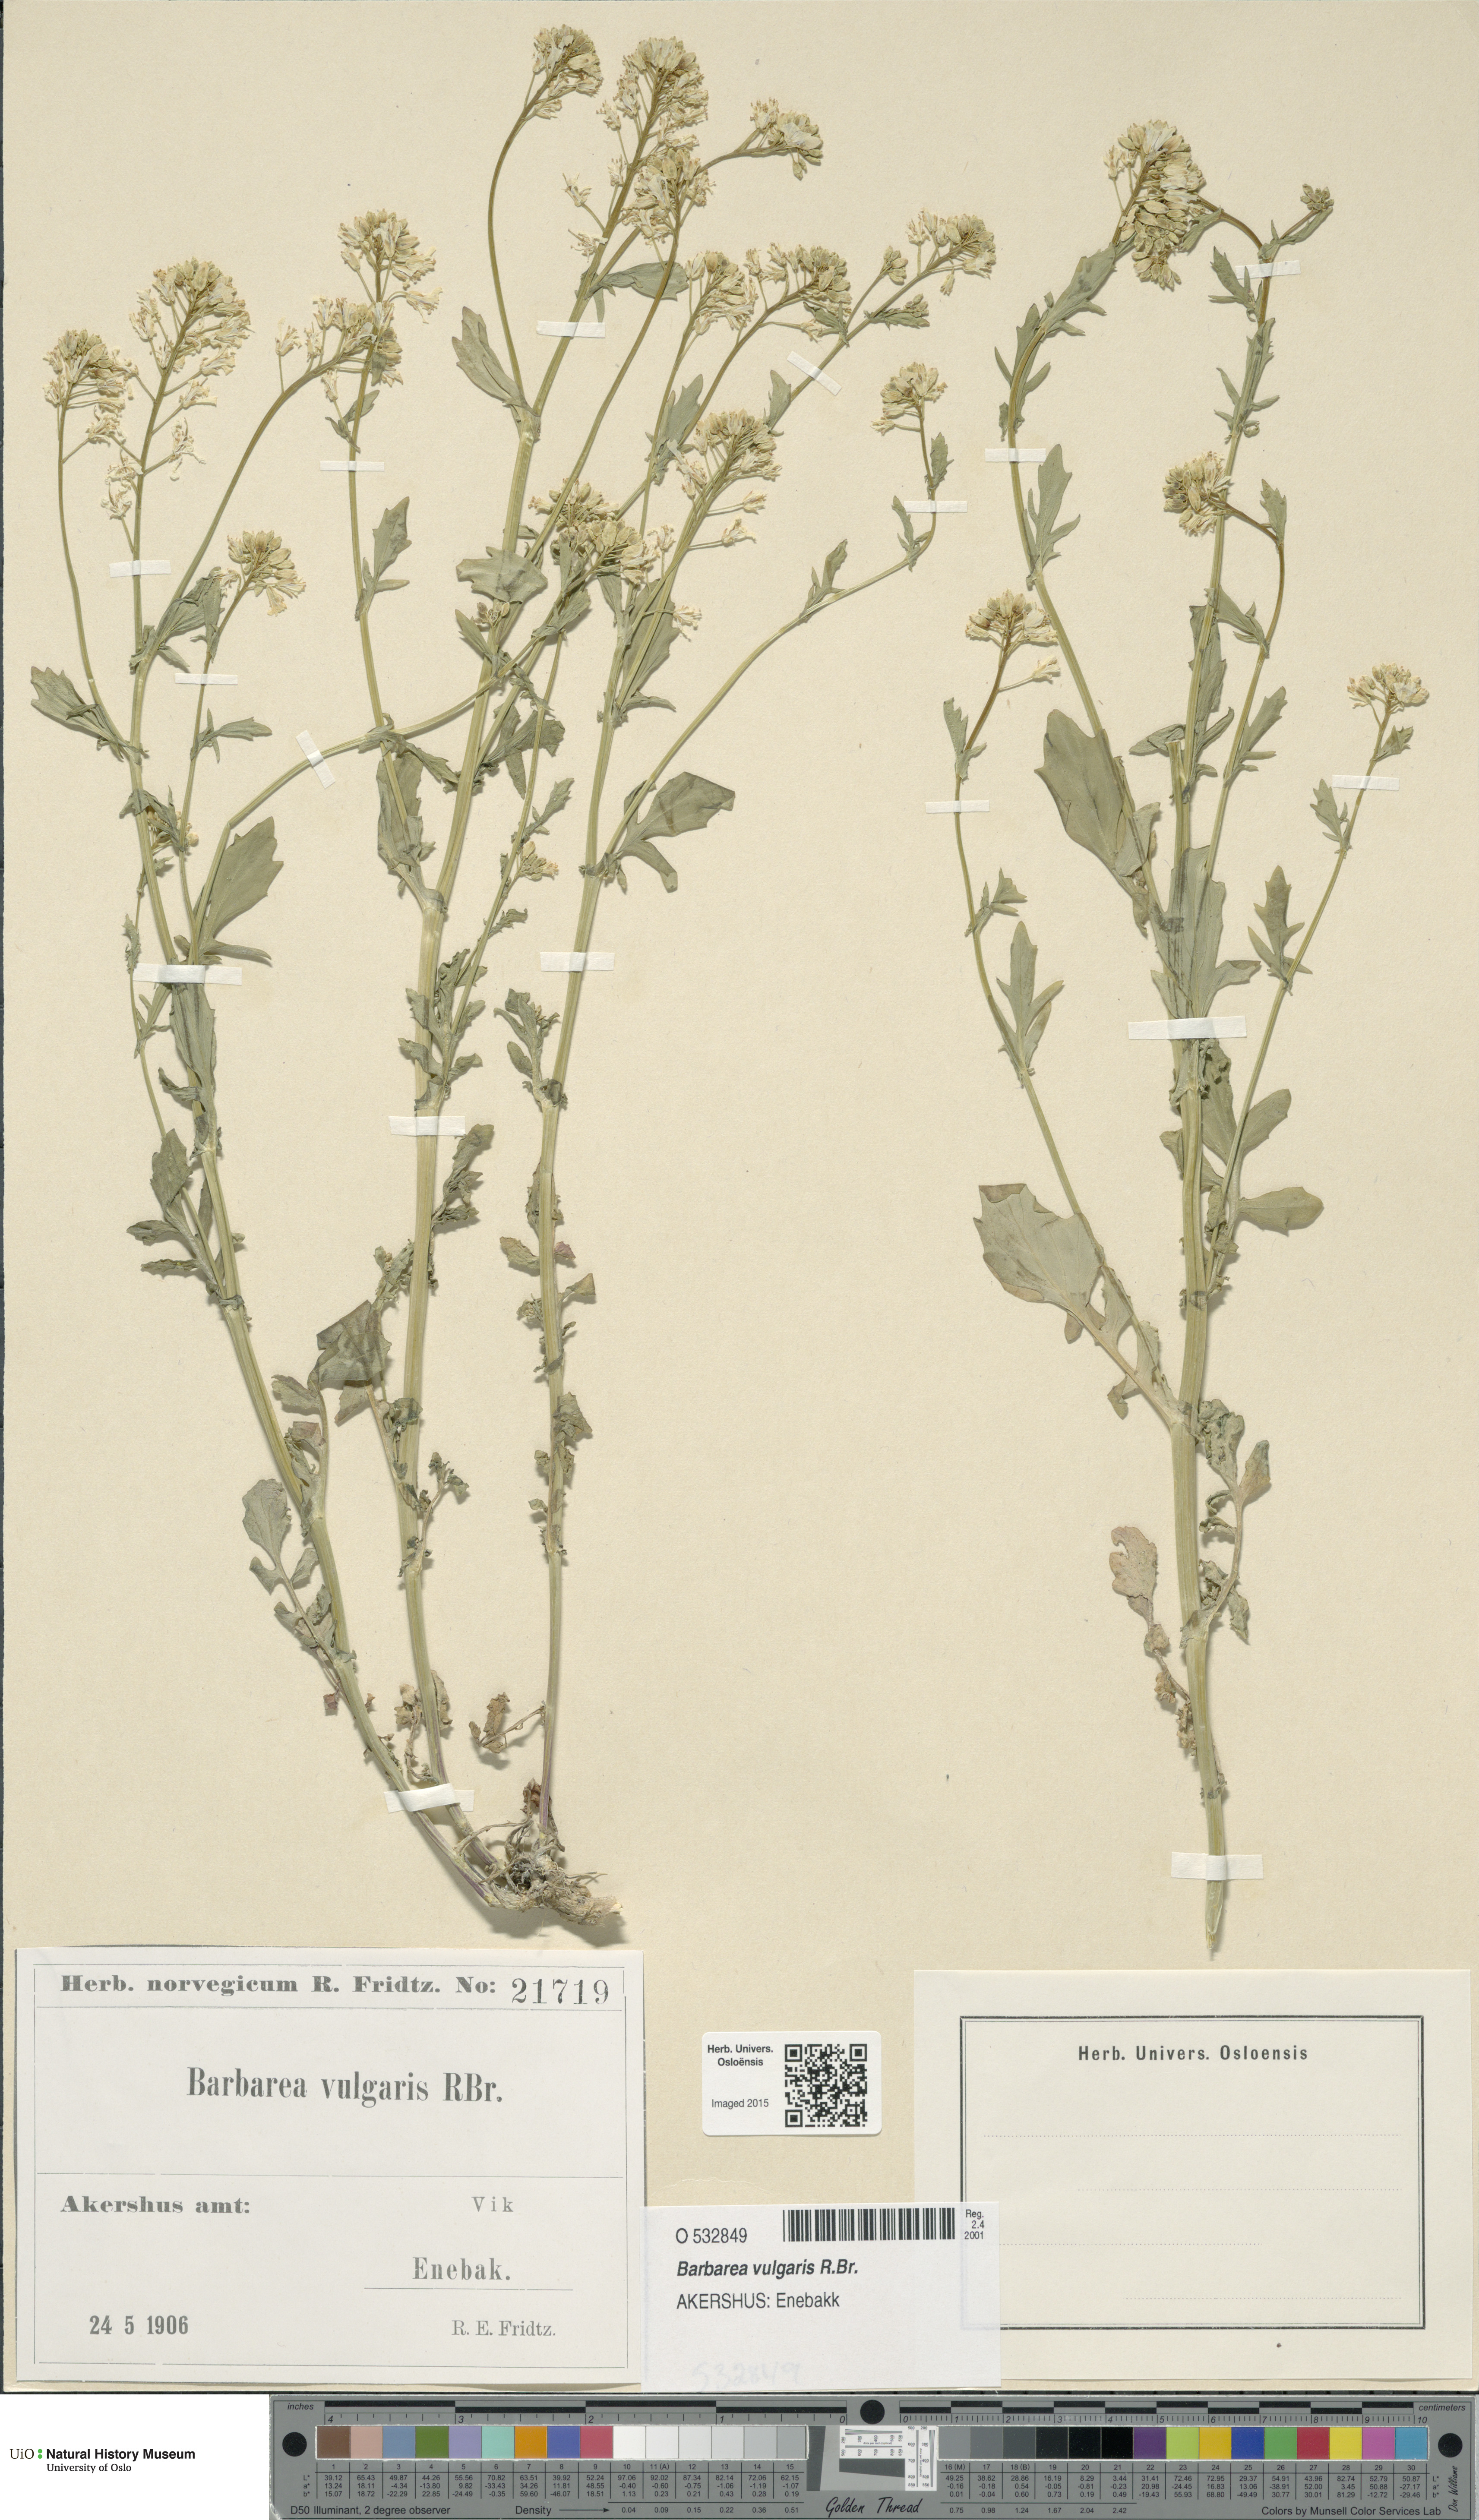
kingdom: Plantae
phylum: Tracheophyta
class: Magnoliopsida
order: Brassicales
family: Brassicaceae
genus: Barbarea
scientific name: Barbarea vulgaris
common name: Cressy-greens
